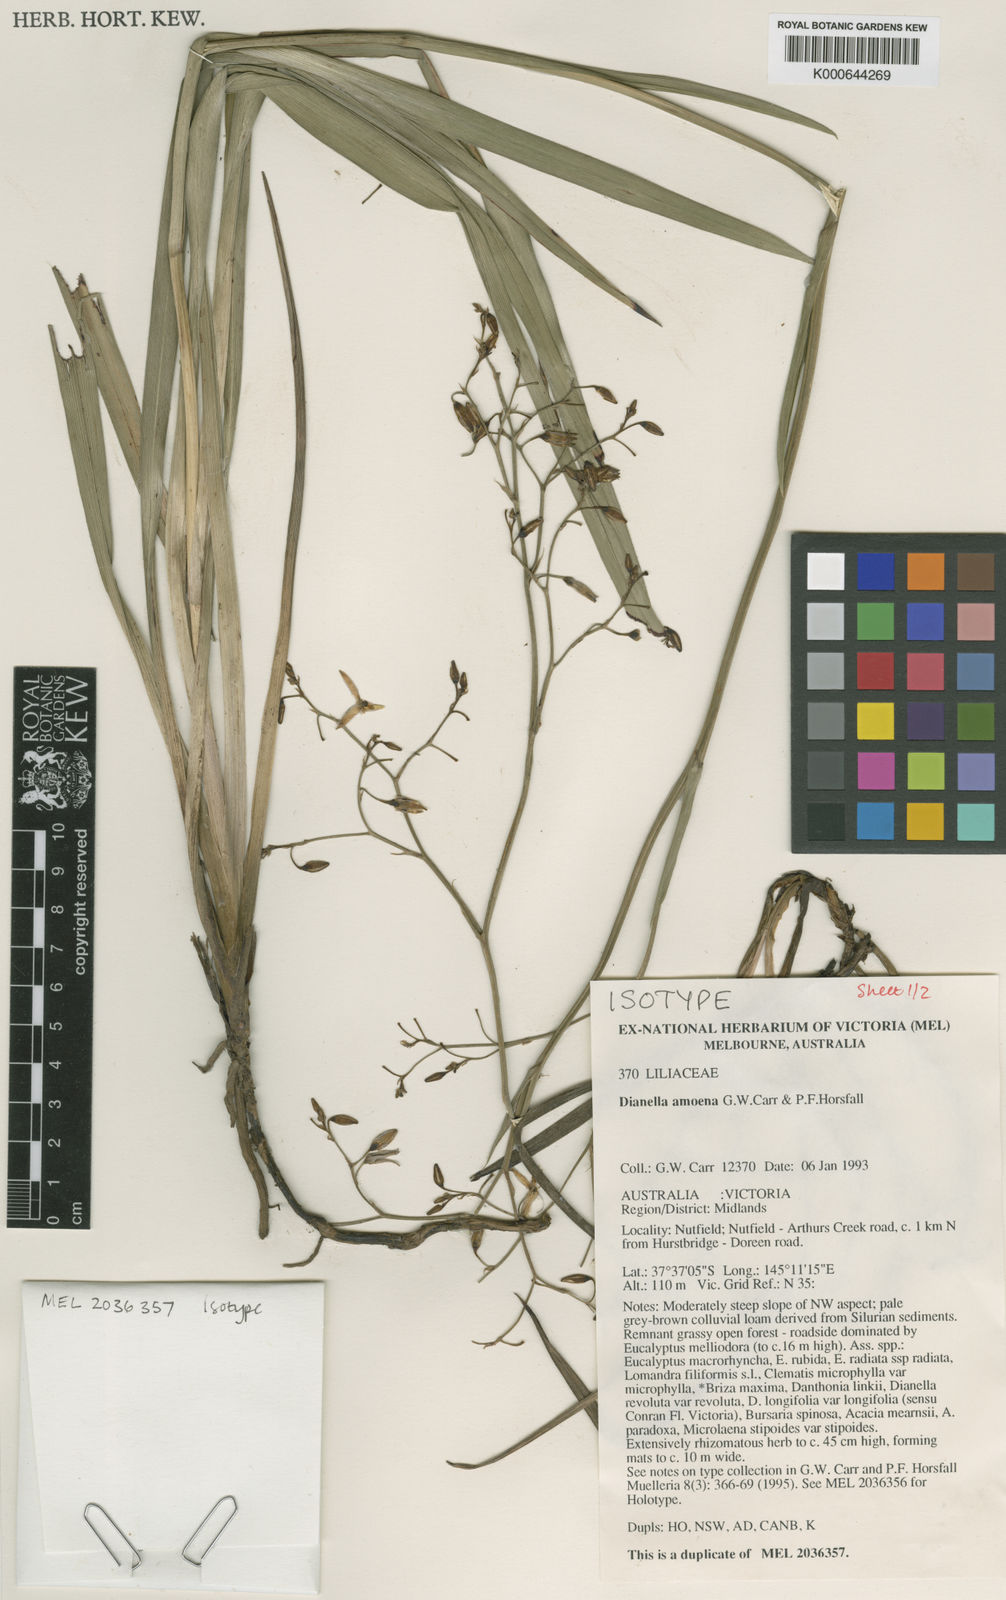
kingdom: Plantae
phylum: Tracheophyta
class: Liliopsida
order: Asparagales
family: Asphodelaceae
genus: Dianella
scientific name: Dianella amoena
